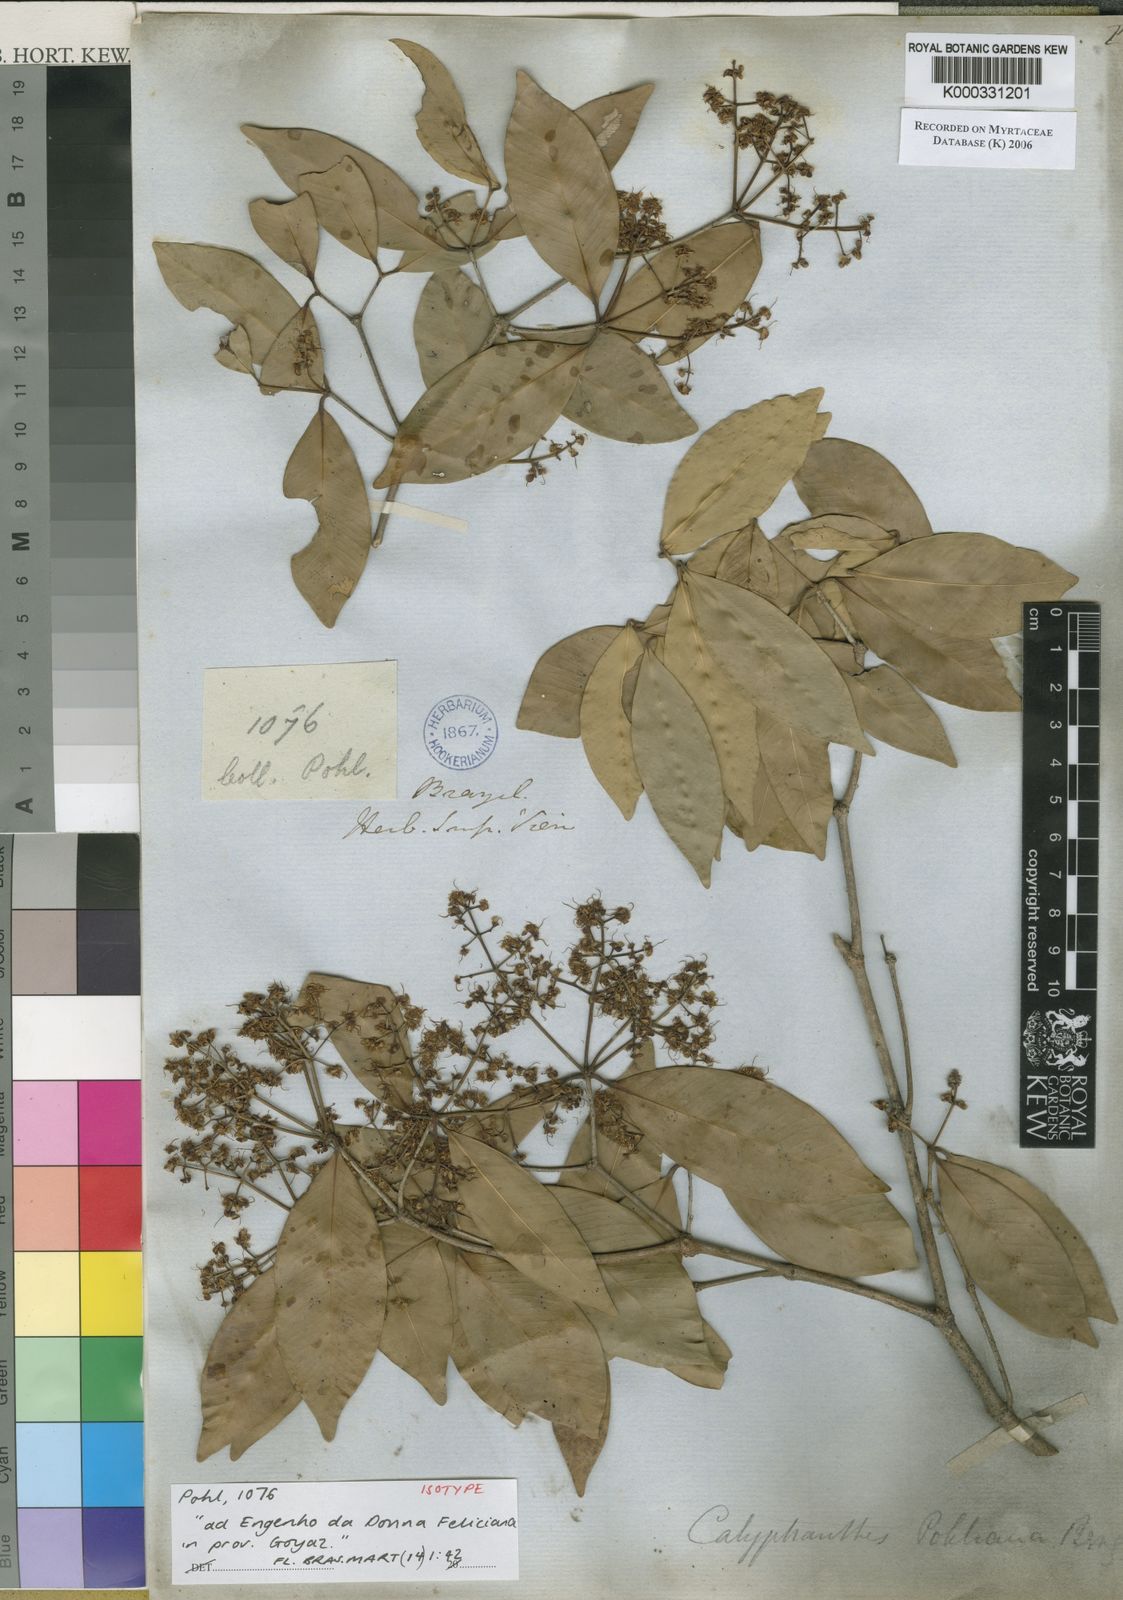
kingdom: Plantae
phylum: Tracheophyta
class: Magnoliopsida
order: Myrtales
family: Myrtaceae
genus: Myrcia
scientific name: Myrcia neolucida
